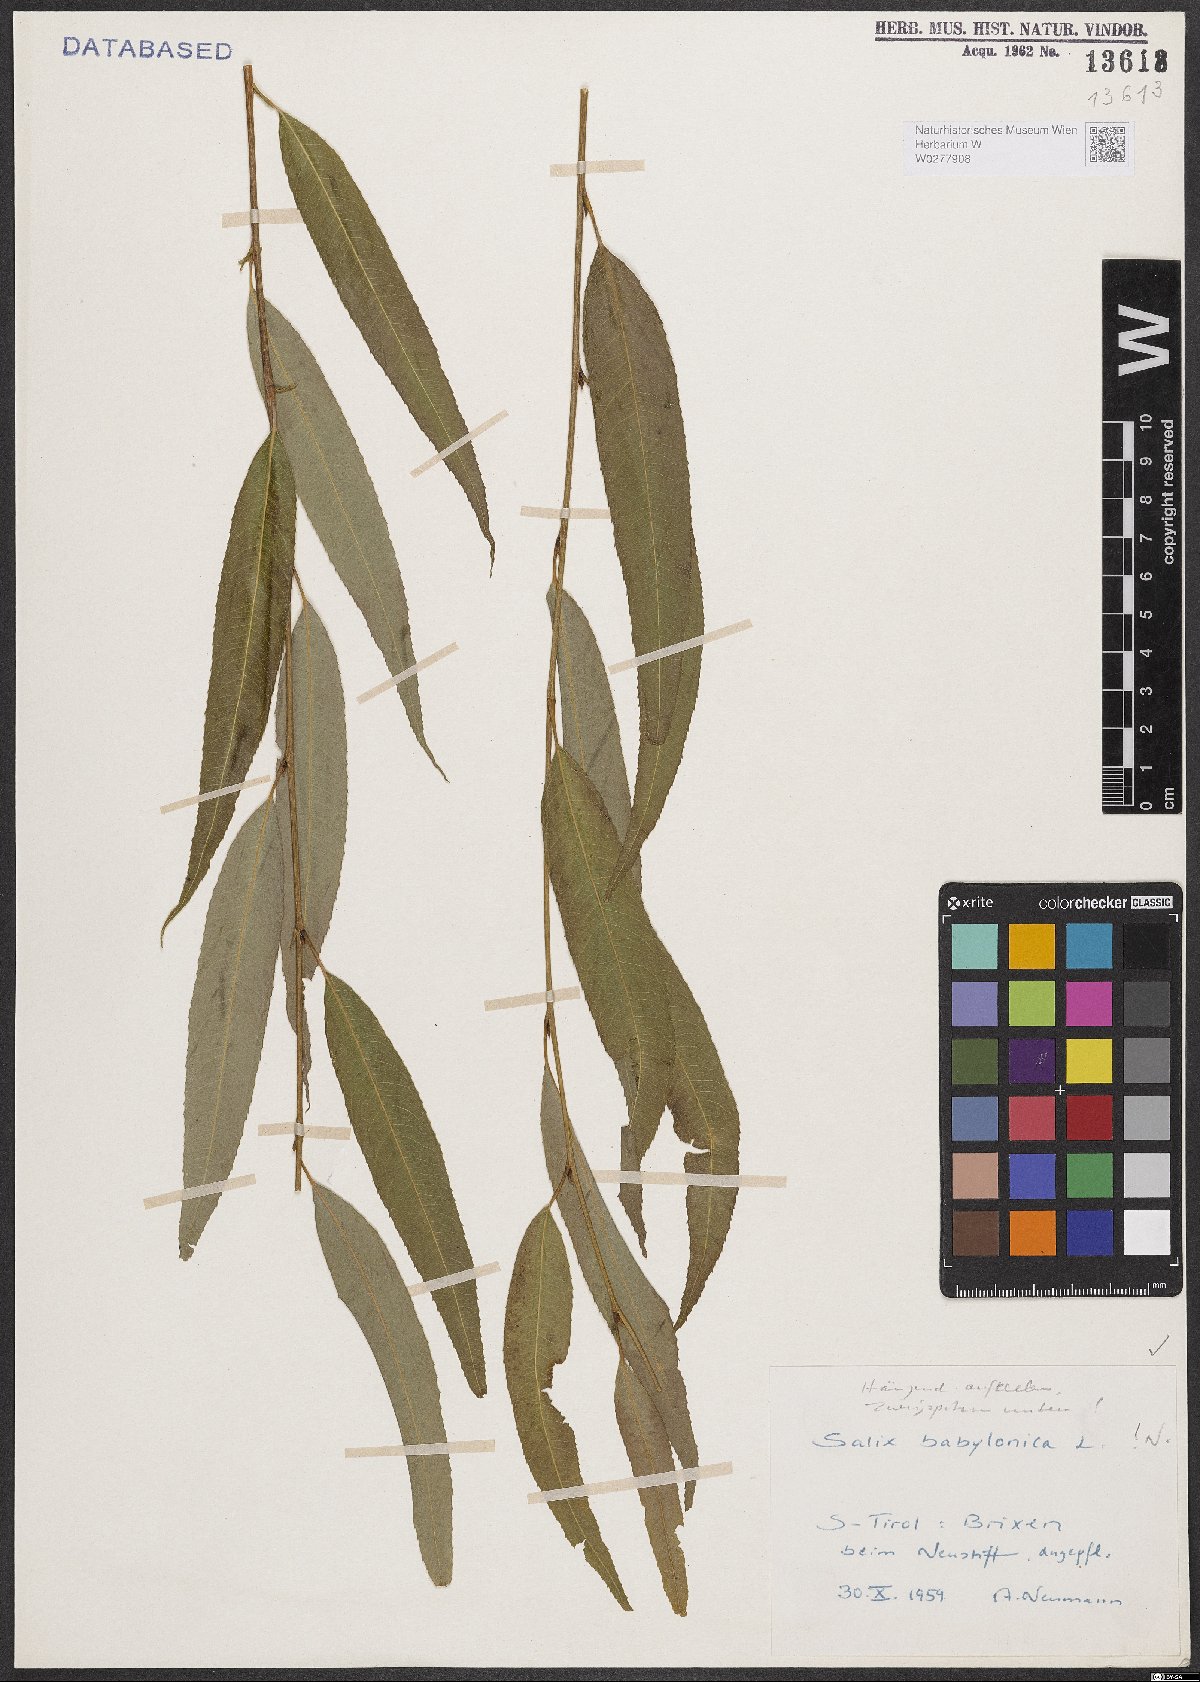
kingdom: Plantae
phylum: Tracheophyta
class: Magnoliopsida
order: Malpighiales
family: Salicaceae
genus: Salix
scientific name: Salix babylonica
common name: Weeping willow
